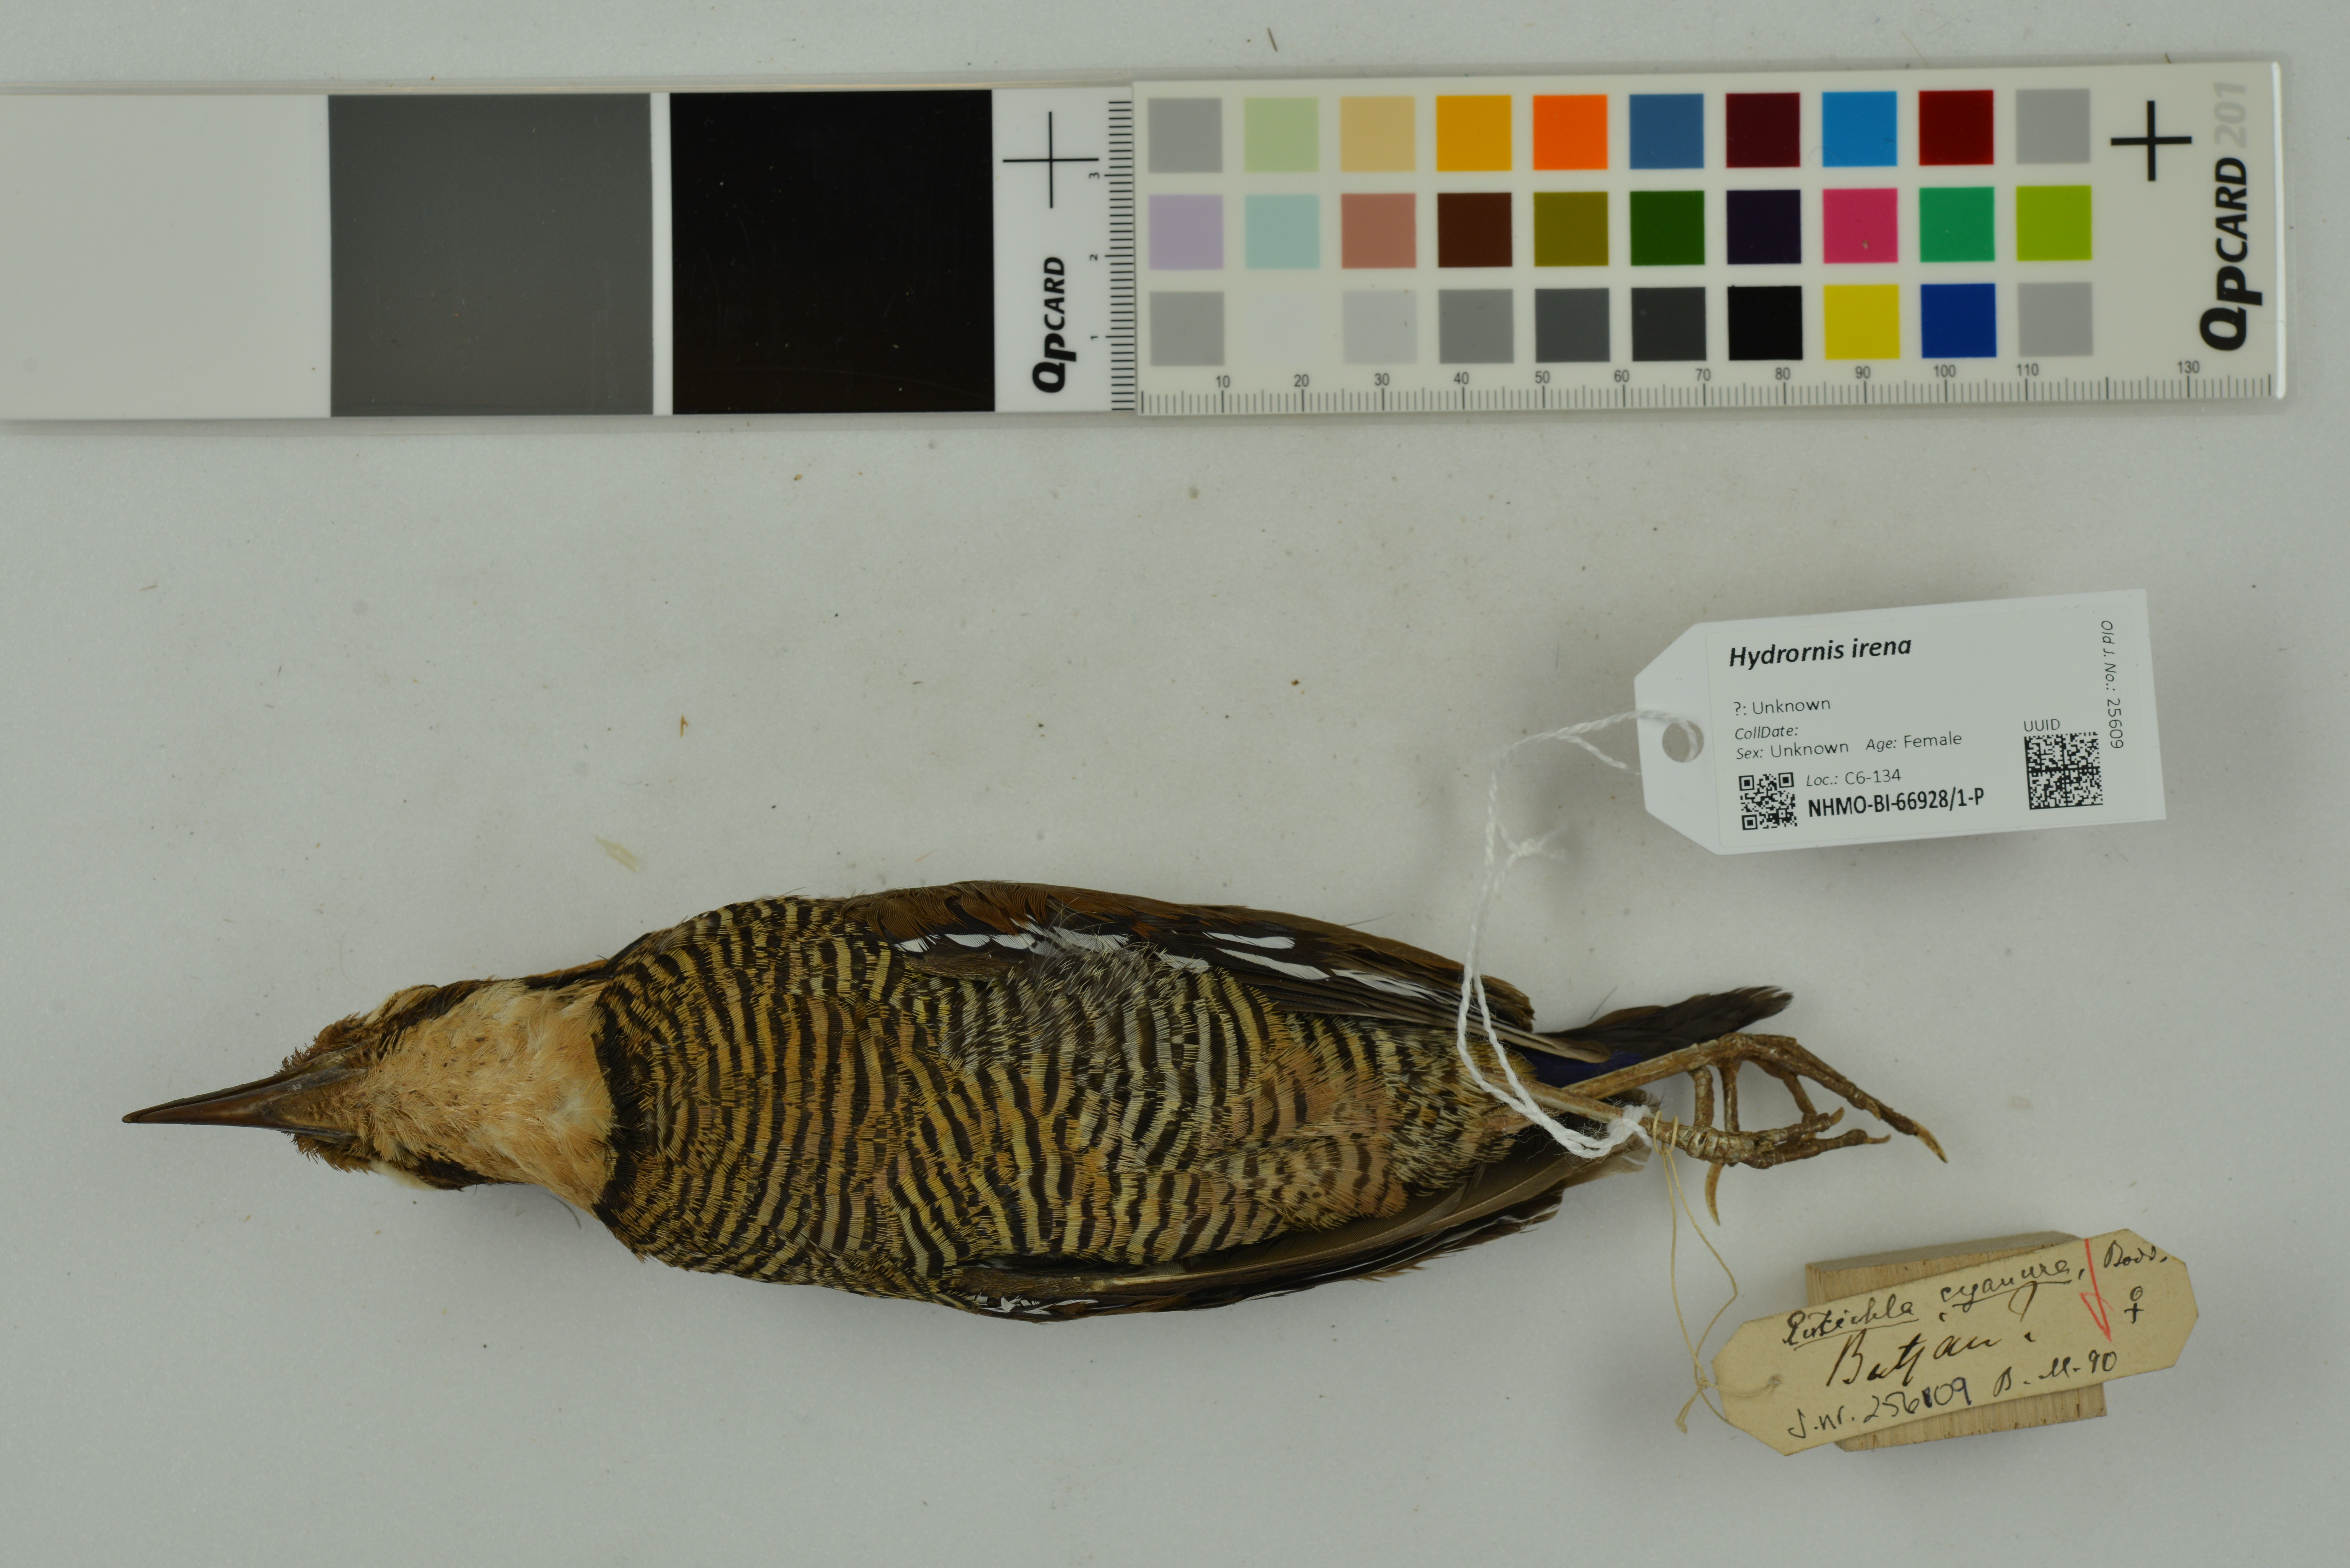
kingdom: Animalia
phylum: Chordata
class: Aves
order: Passeriformes
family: Pittidae
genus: Hydrornis
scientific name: Hydrornis irena
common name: Malayan banded pitta
